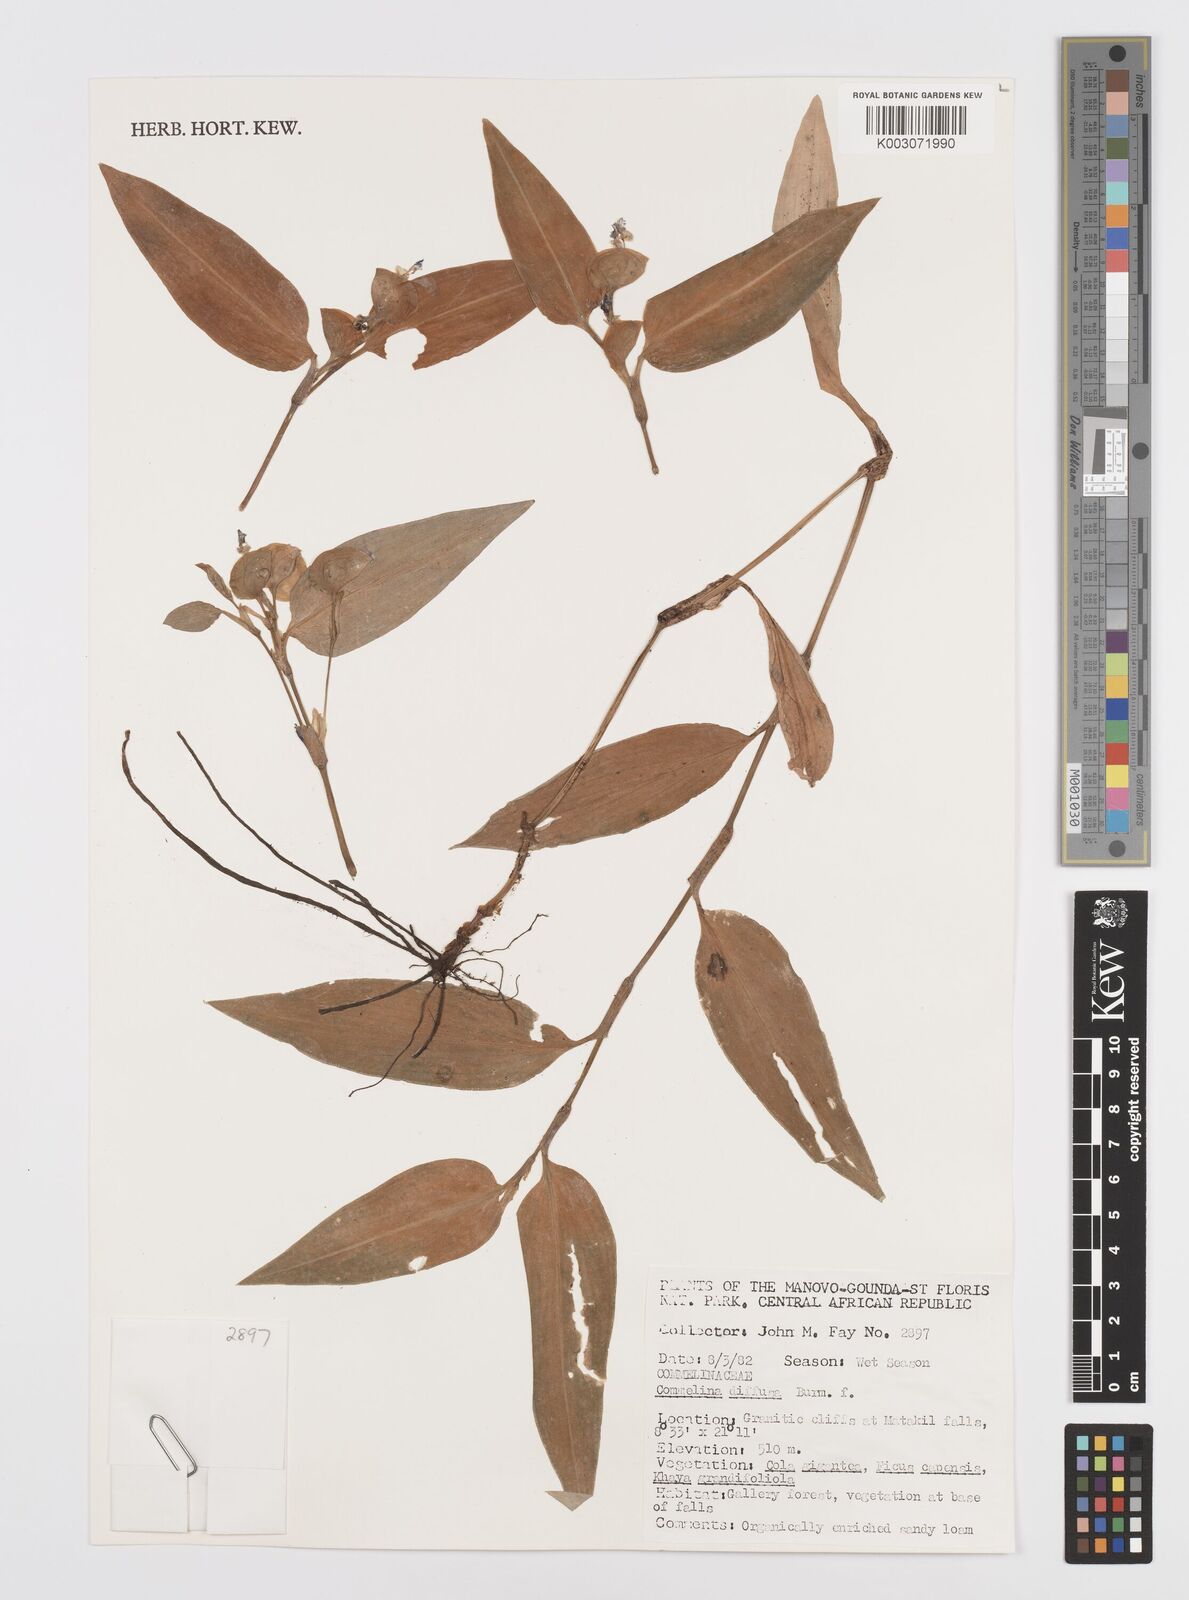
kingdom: Plantae
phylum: Tracheophyta
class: Liliopsida
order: Commelinales
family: Commelinaceae
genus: Commelina
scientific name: Commelina diffusa
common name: Climbing dayflower
